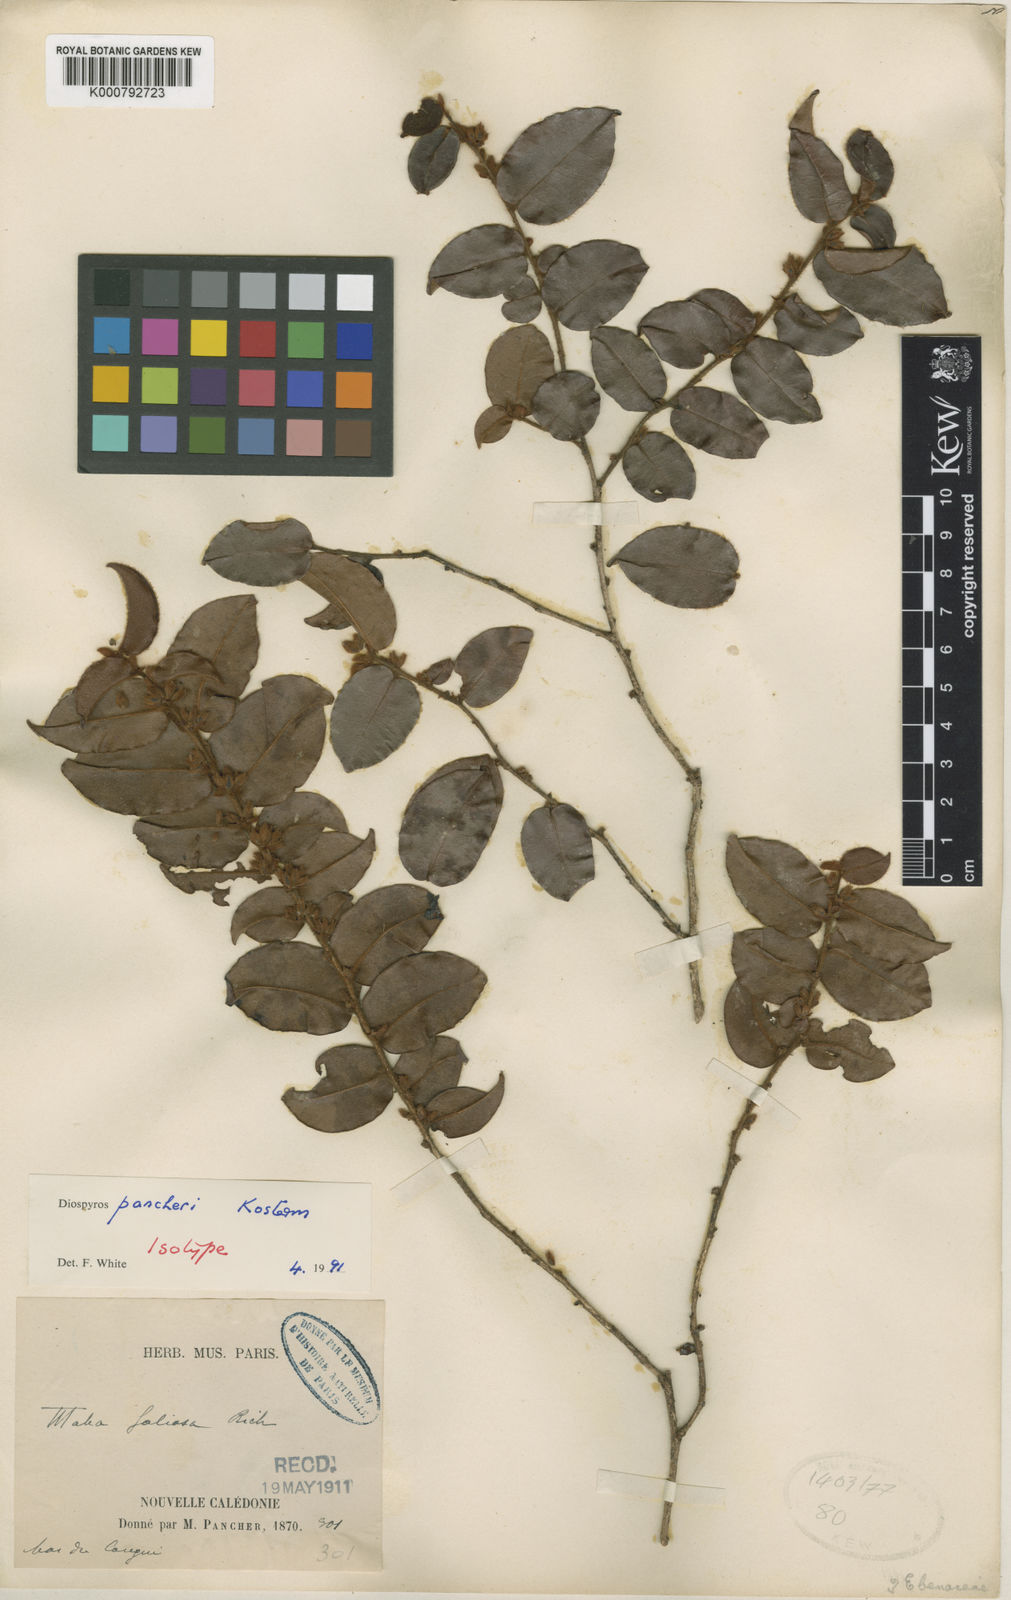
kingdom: Plantae
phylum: Tracheophyta
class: Magnoliopsida
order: Ericales
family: Ebenaceae
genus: Diospyros
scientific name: Diospyros pancheri
